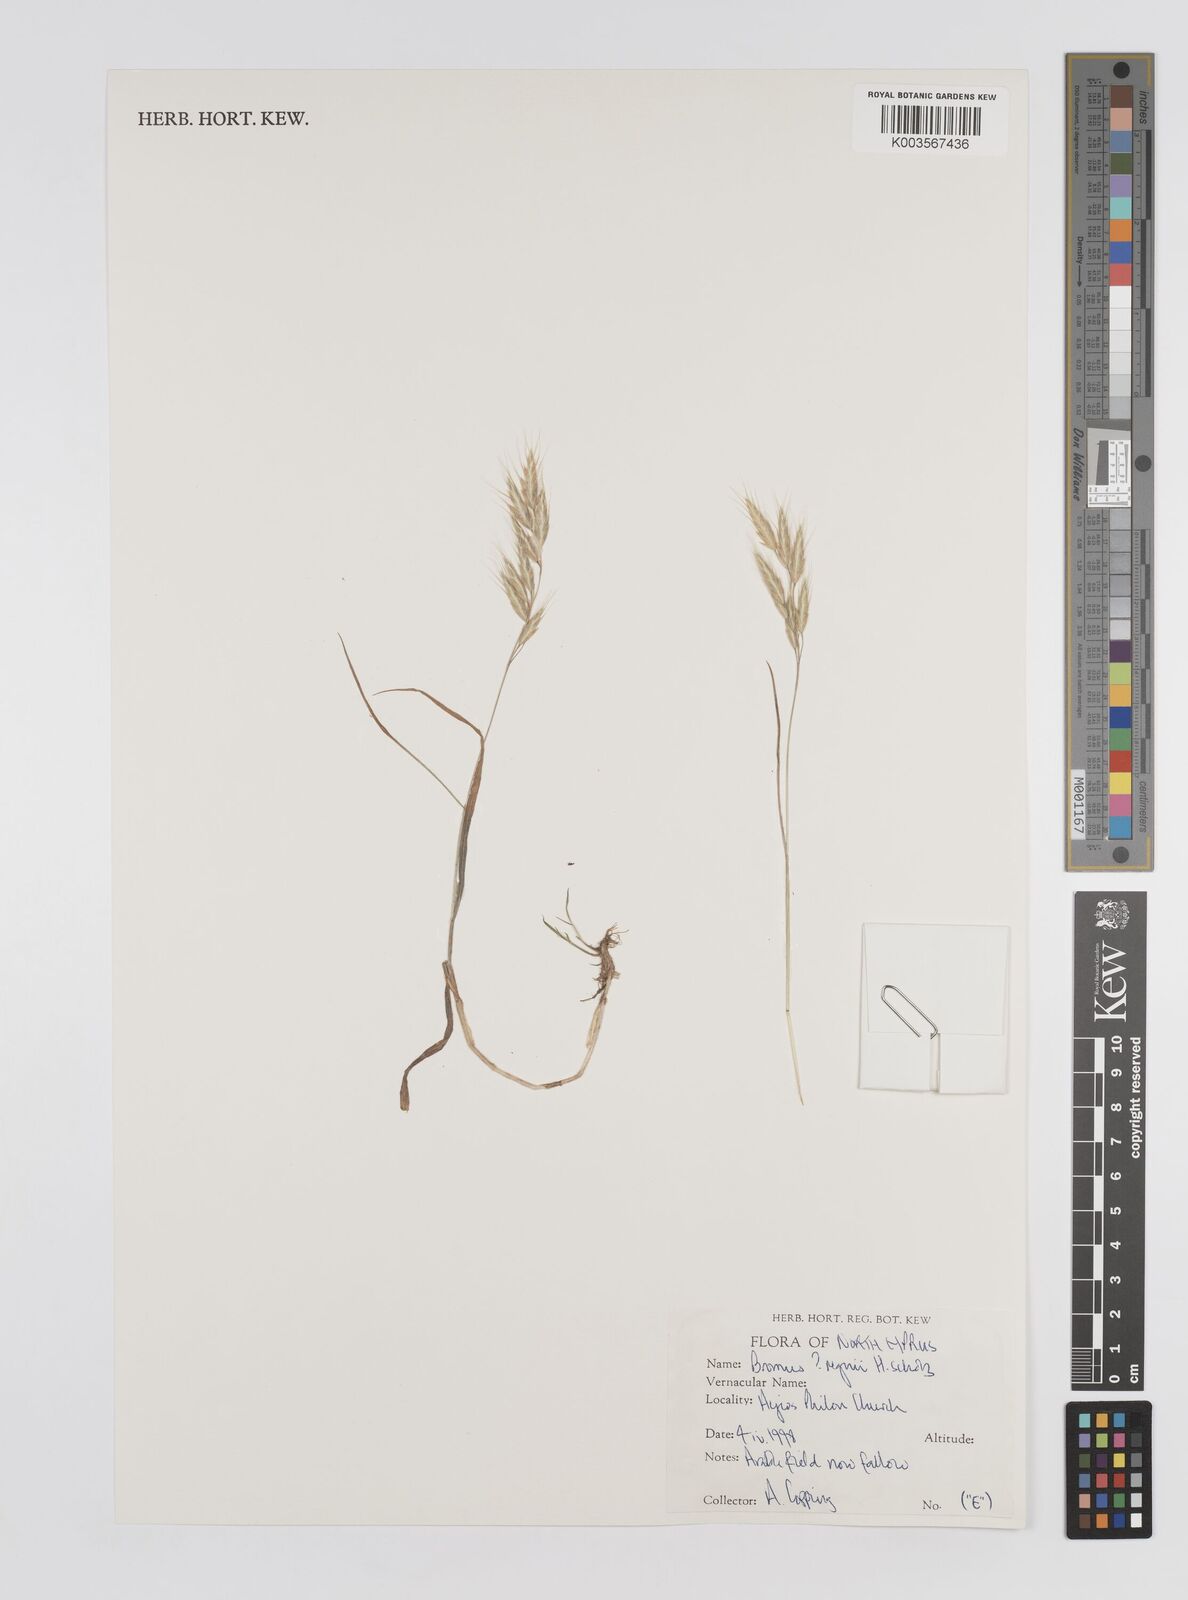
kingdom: Plantae
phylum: Tracheophyta
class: Liliopsida
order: Poales
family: Poaceae
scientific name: Poaceae
